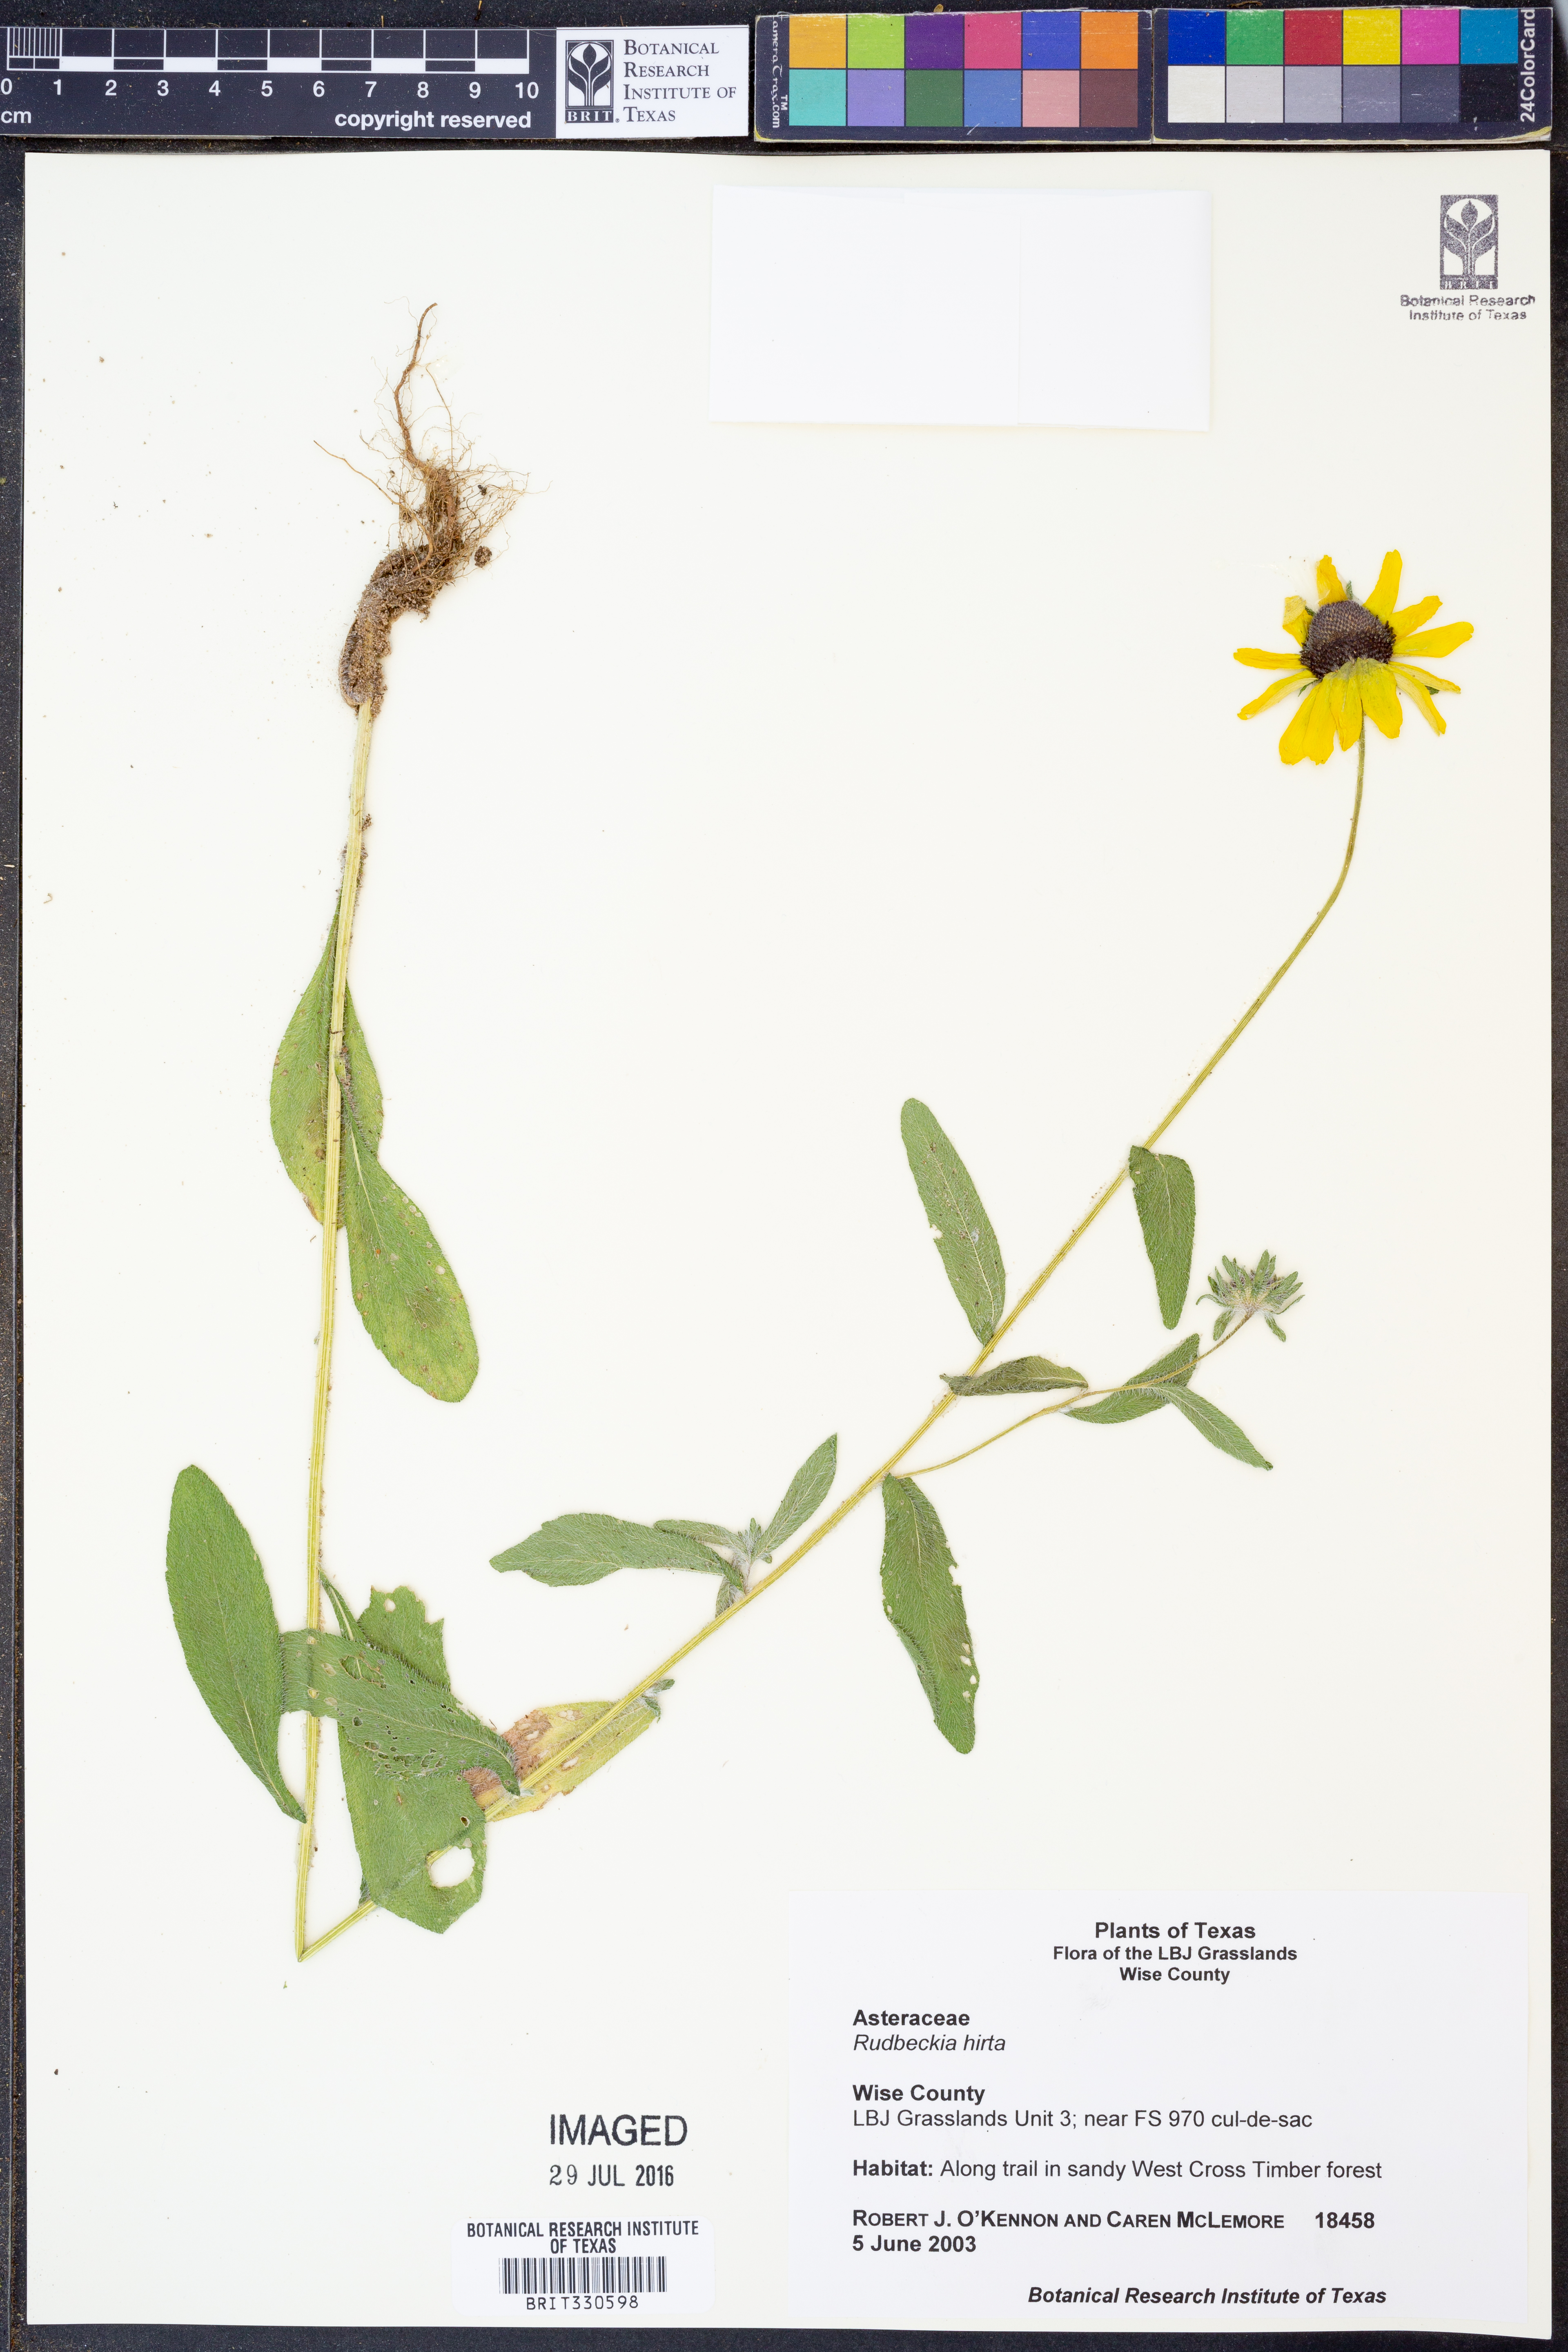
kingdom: Plantae
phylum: Tracheophyta
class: Magnoliopsida
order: Asterales
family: Asteraceae
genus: Rudbeckia
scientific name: Rudbeckia hirta
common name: Black-eyed-susan
